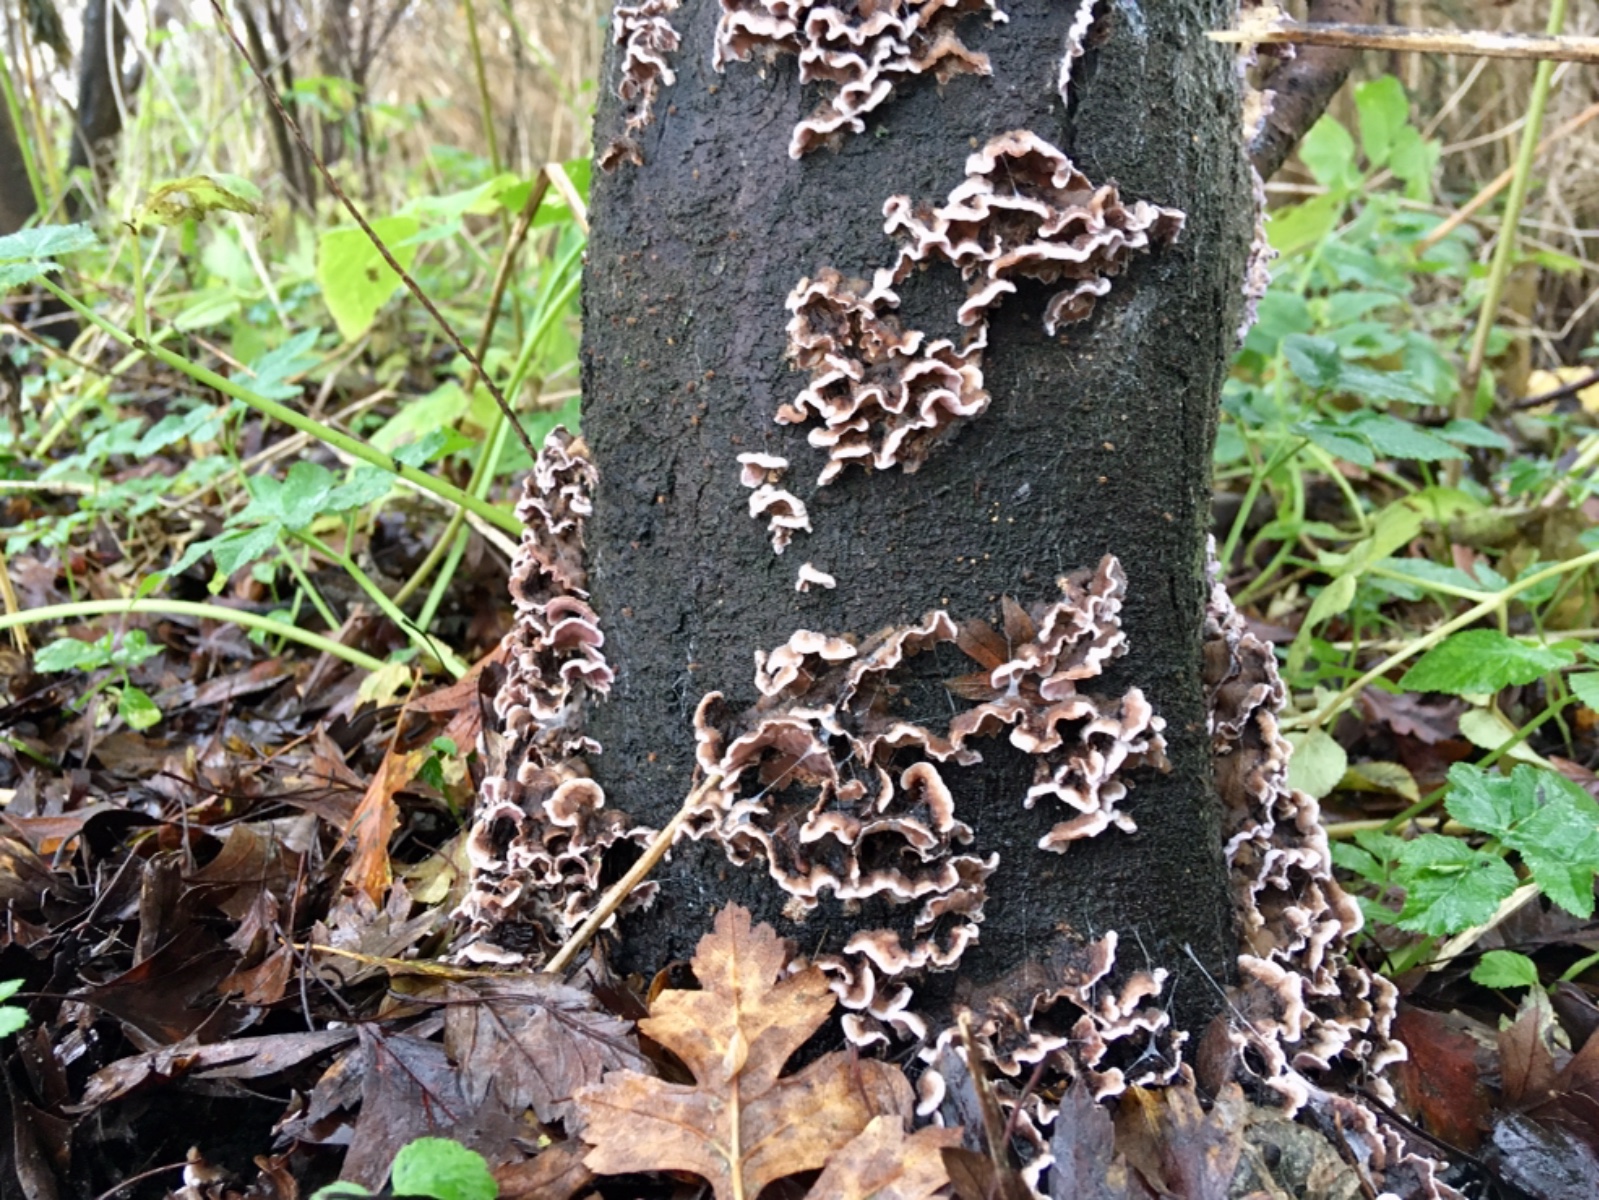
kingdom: Fungi
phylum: Basidiomycota
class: Agaricomycetes
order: Agaricales
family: Cyphellaceae
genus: Chondrostereum
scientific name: Chondrostereum purpureum
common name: purpurlædersvamp
